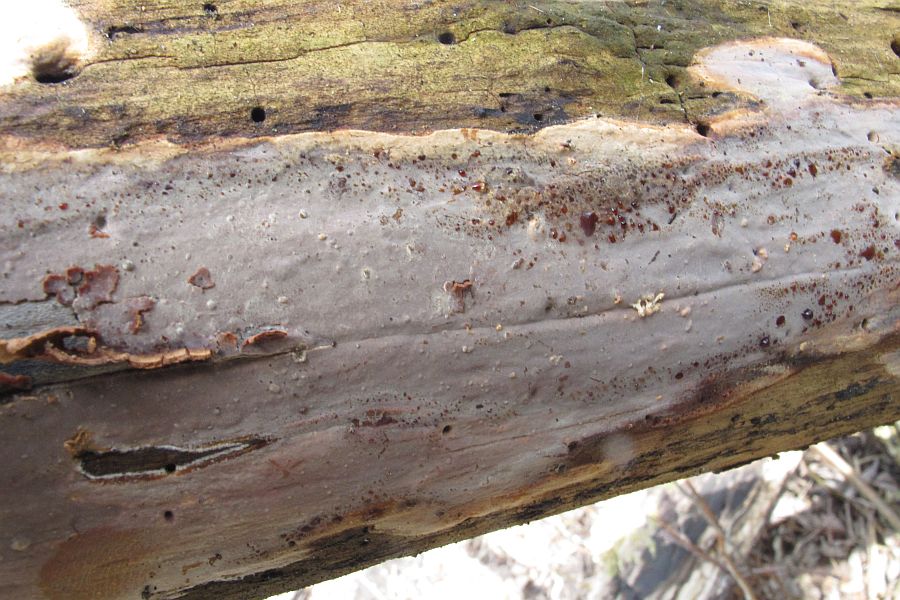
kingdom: Fungi
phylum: Basidiomycota
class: Agaricomycetes
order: Russulales
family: Peniophoraceae
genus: Scytinostroma
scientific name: Scytinostroma hemidichophyticum
